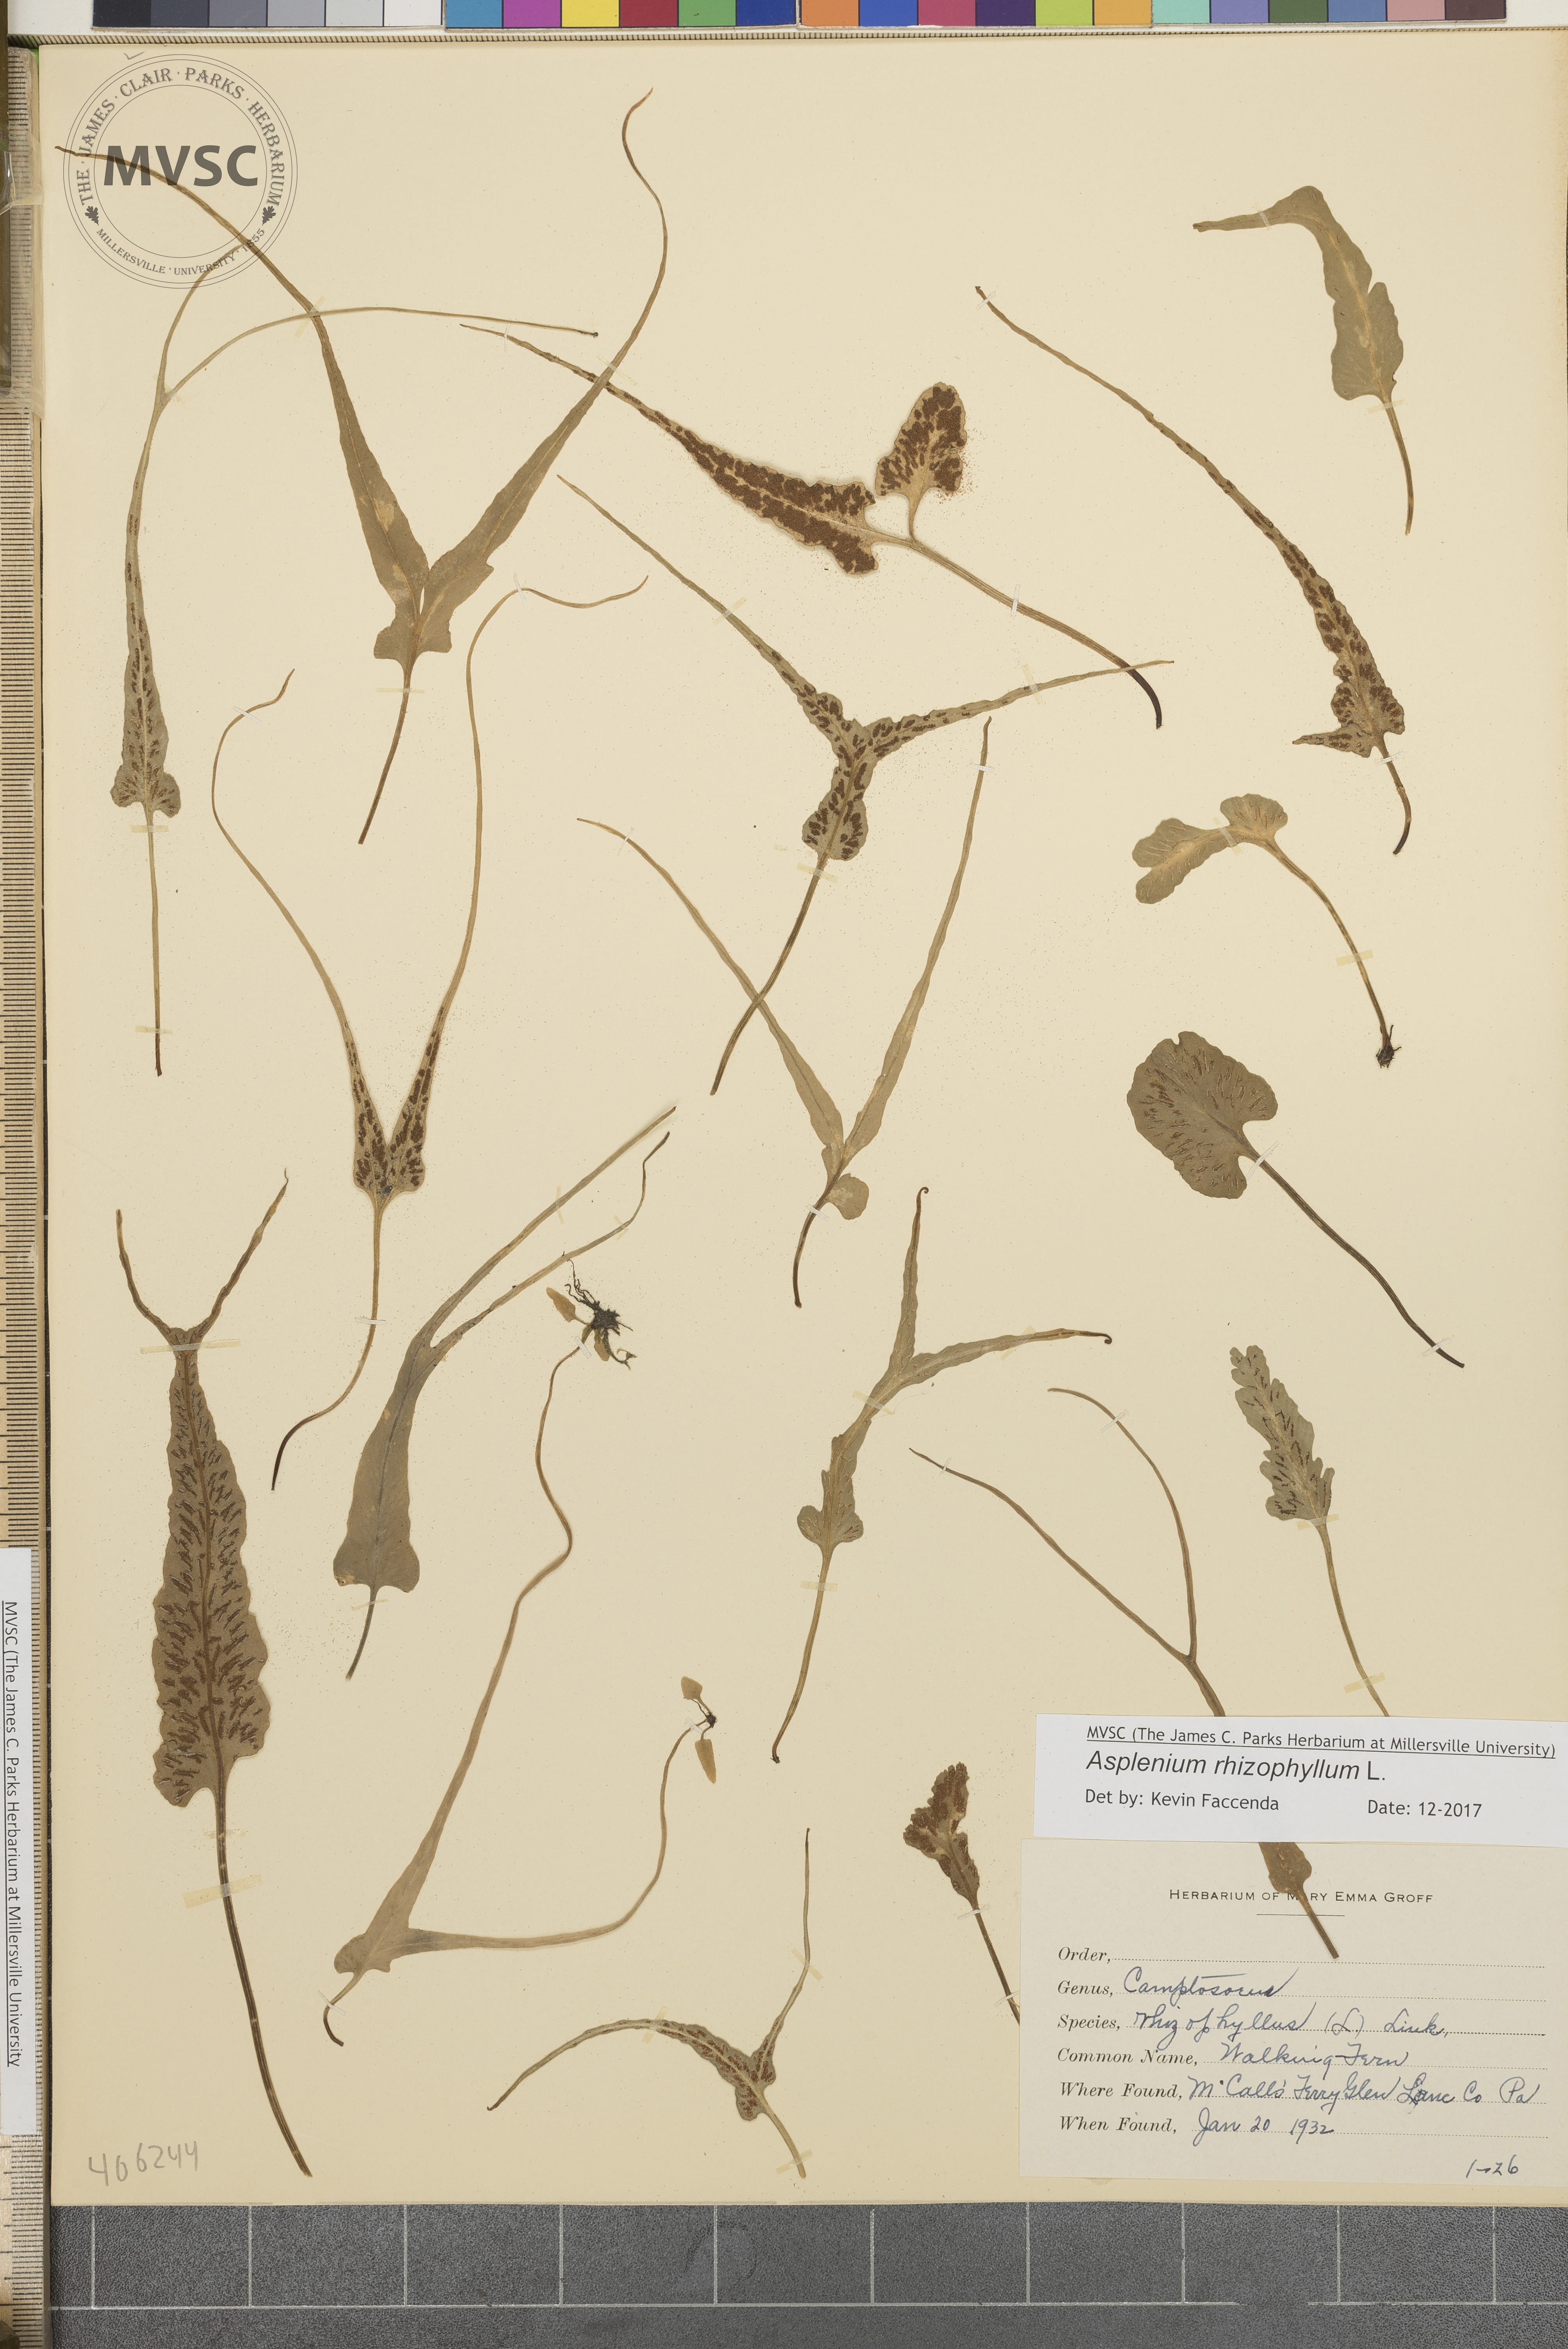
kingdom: Plantae
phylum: Tracheophyta
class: Polypodiopsida
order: Polypodiales
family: Aspleniaceae
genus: Asplenium
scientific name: Asplenium rhizophyllum
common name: Walking fern
